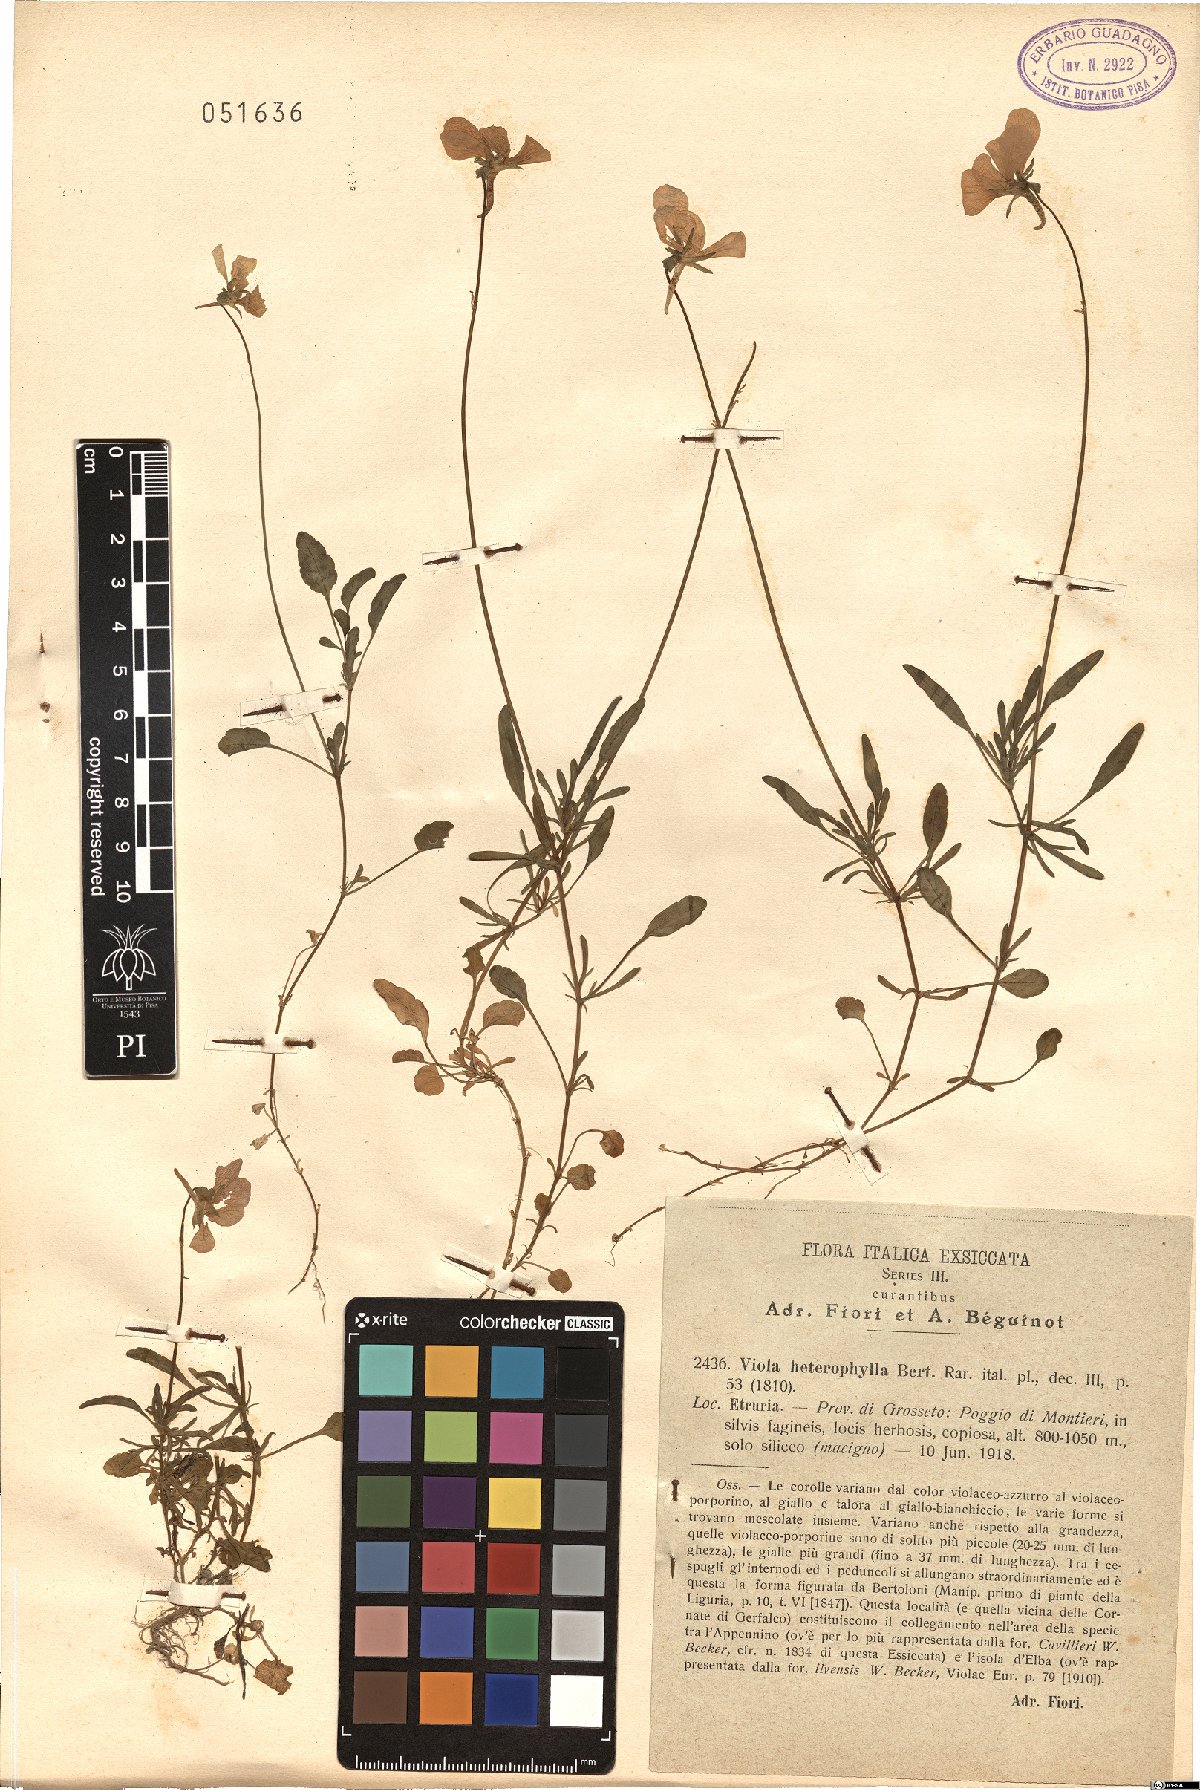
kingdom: Plantae
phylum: Tracheophyta
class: Magnoliopsida
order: Malpighiales
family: Violaceae
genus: Viola
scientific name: Viola bertolonii
